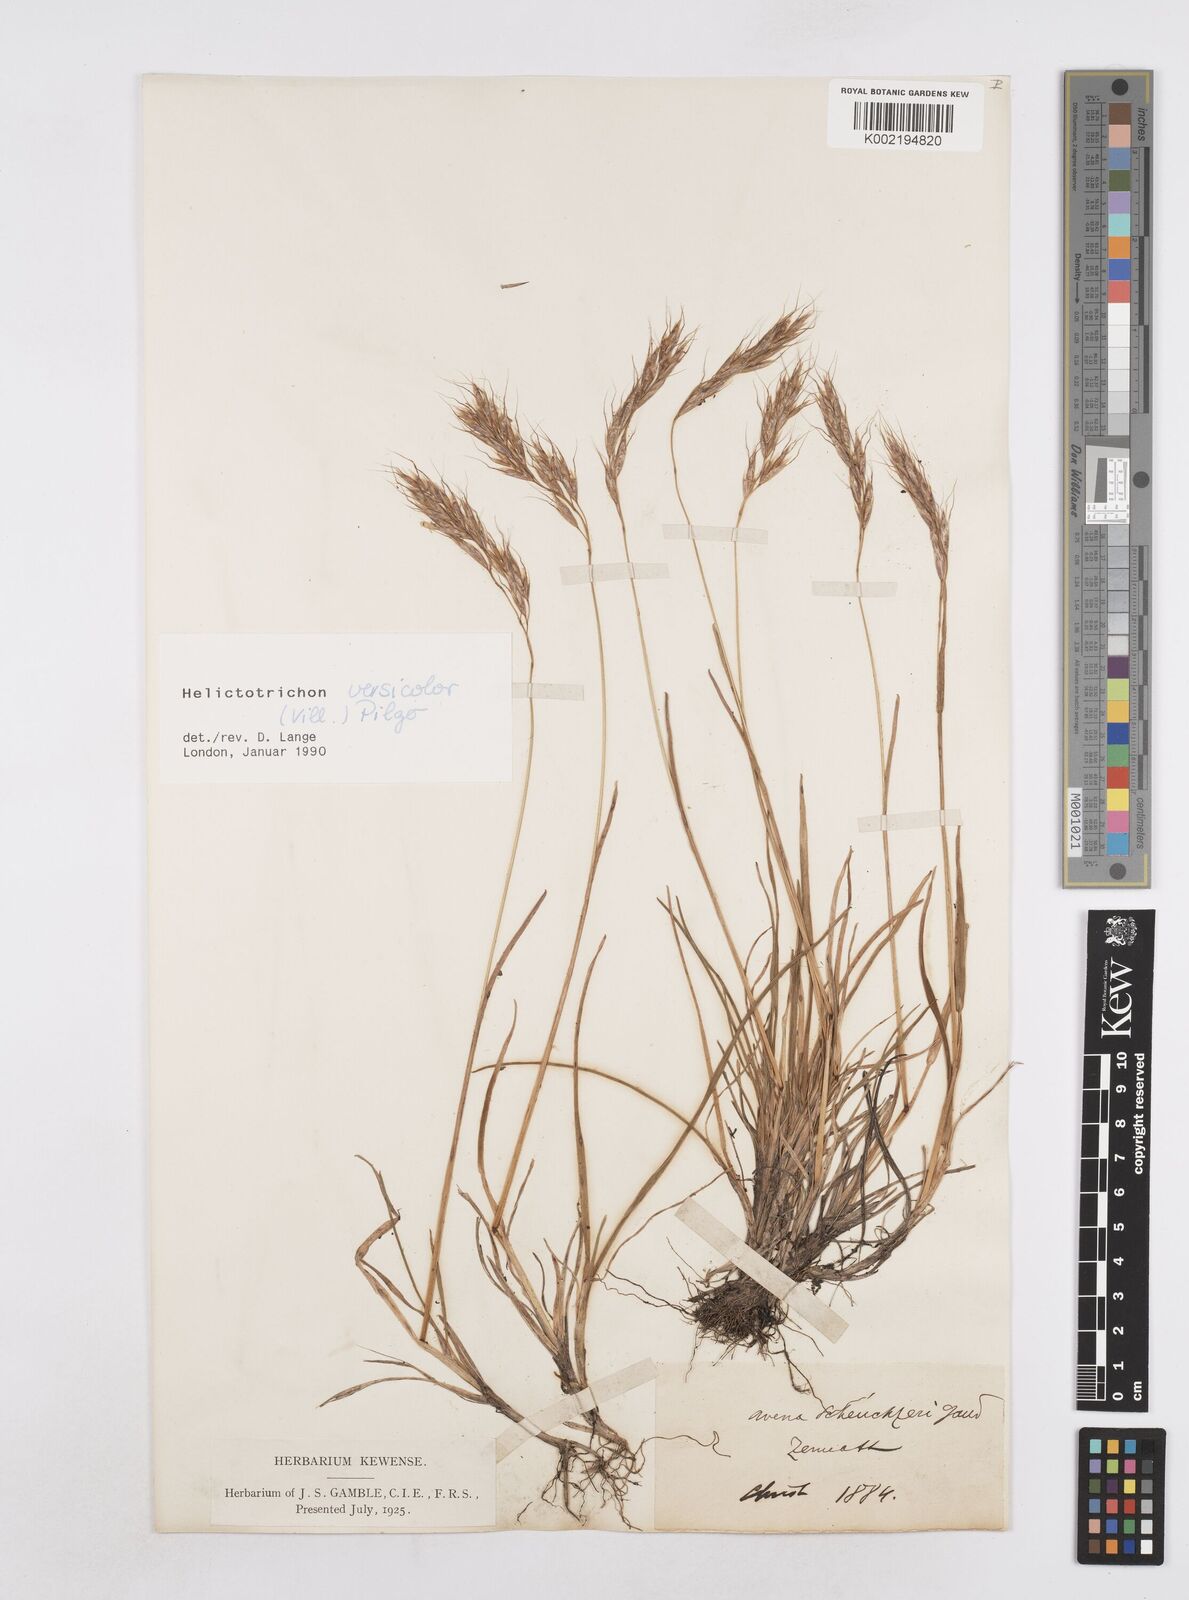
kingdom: Plantae
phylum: Tracheophyta
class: Liliopsida
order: Poales
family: Poaceae
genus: Helictochloa
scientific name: Helictochloa versicolor
